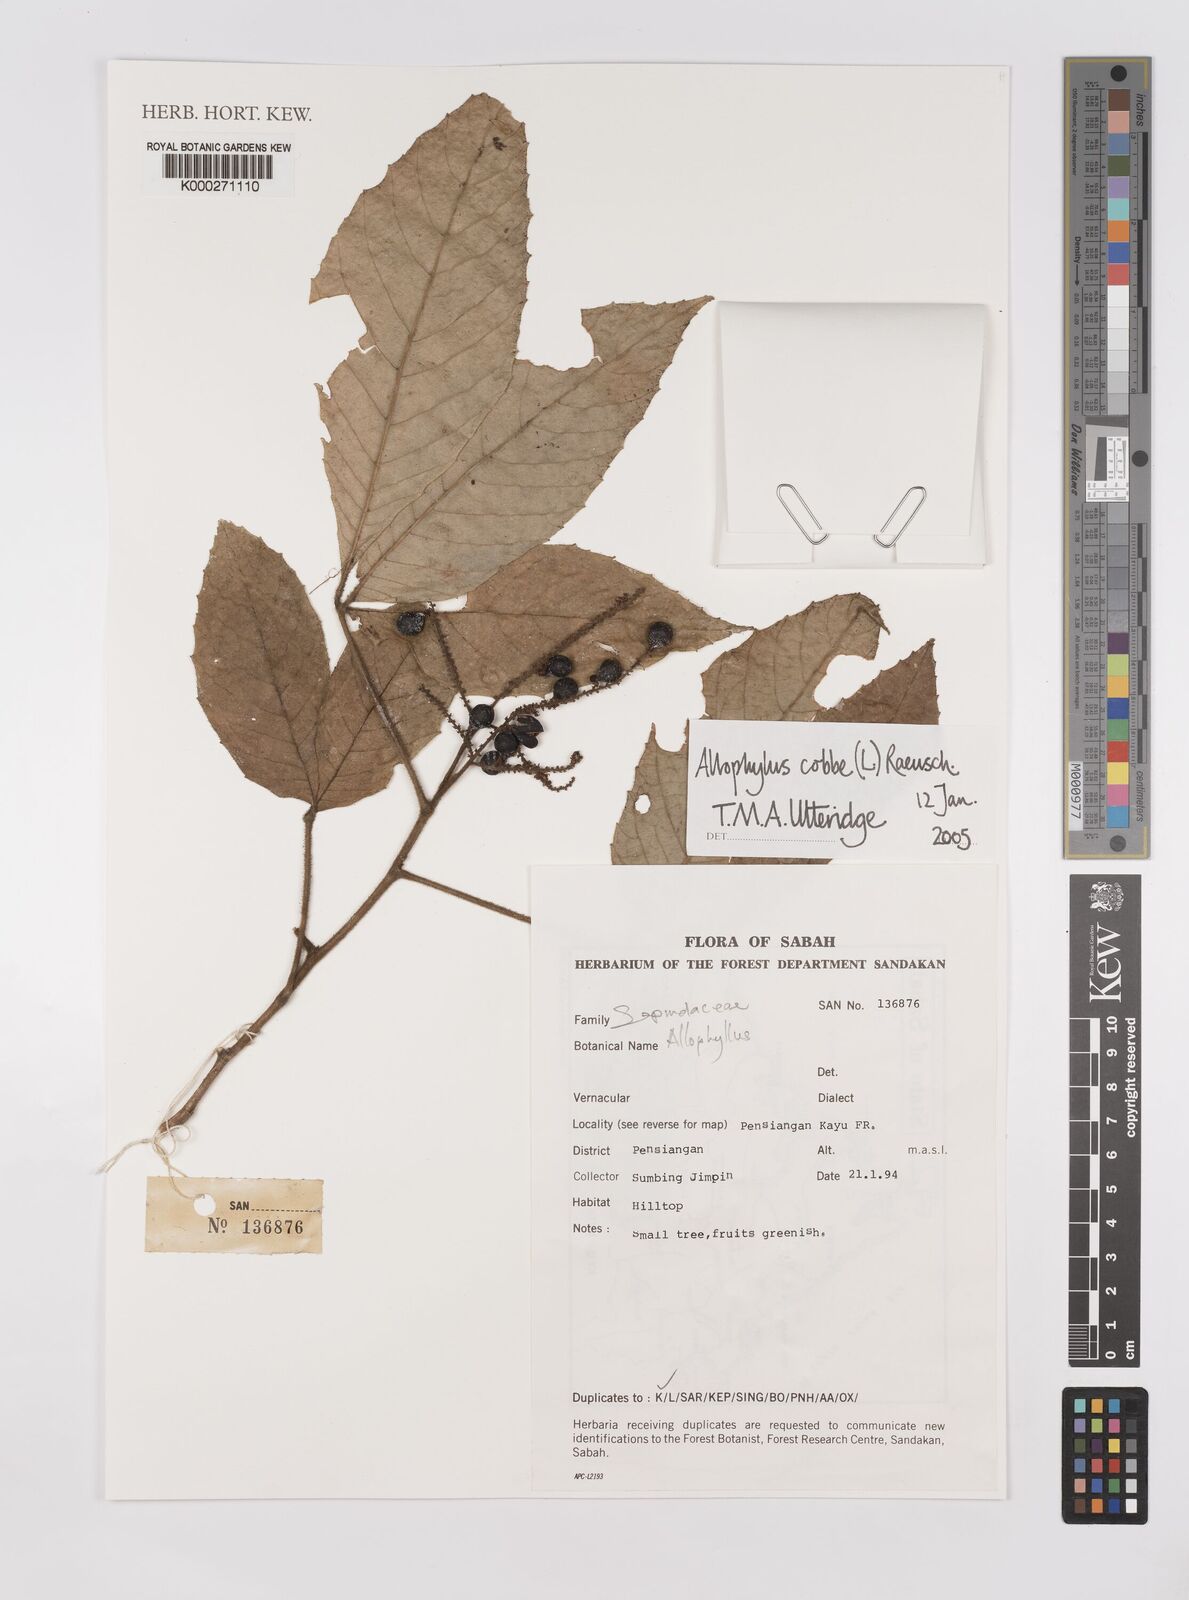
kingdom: Plantae
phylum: Tracheophyta
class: Magnoliopsida
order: Sapindales
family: Sapindaceae
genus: Allophylus
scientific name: Allophylus
